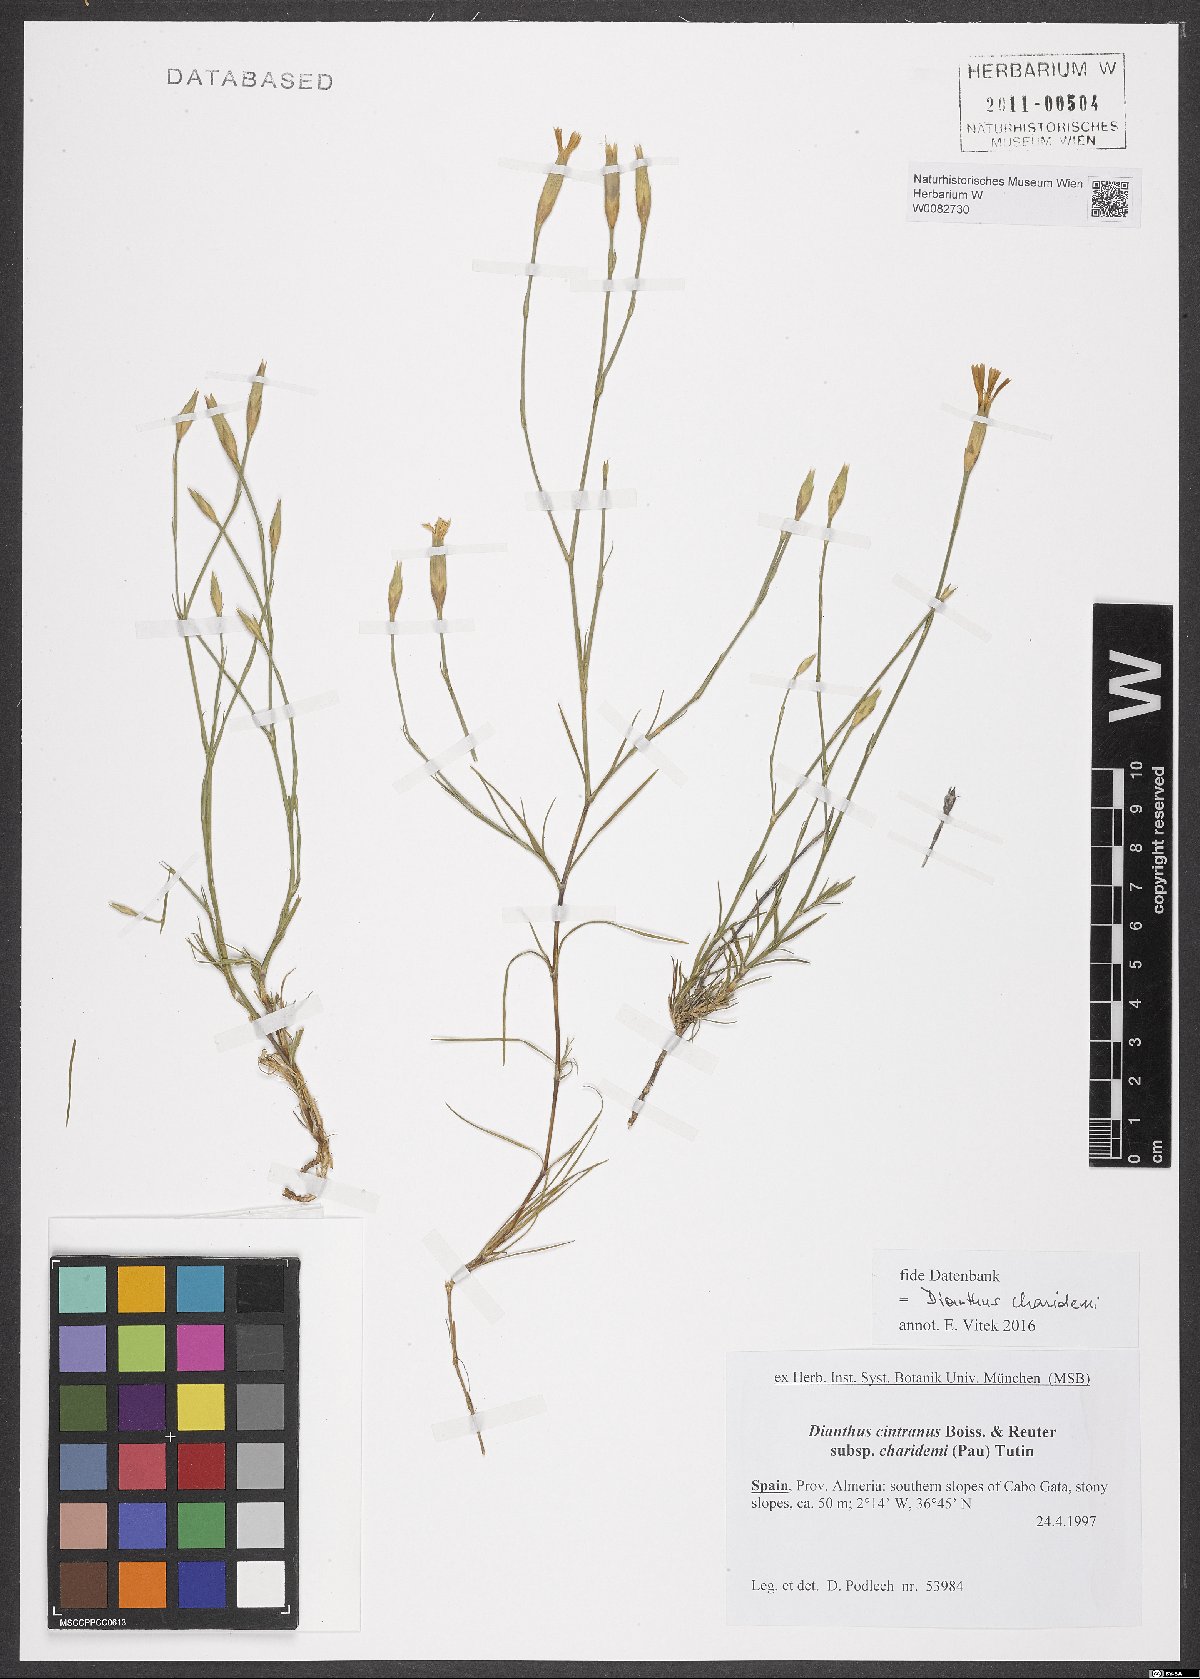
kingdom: Plantae
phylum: Tracheophyta
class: Magnoliopsida
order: Caryophyllales
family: Caryophyllaceae
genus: Dianthus
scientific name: Dianthus charidemi
